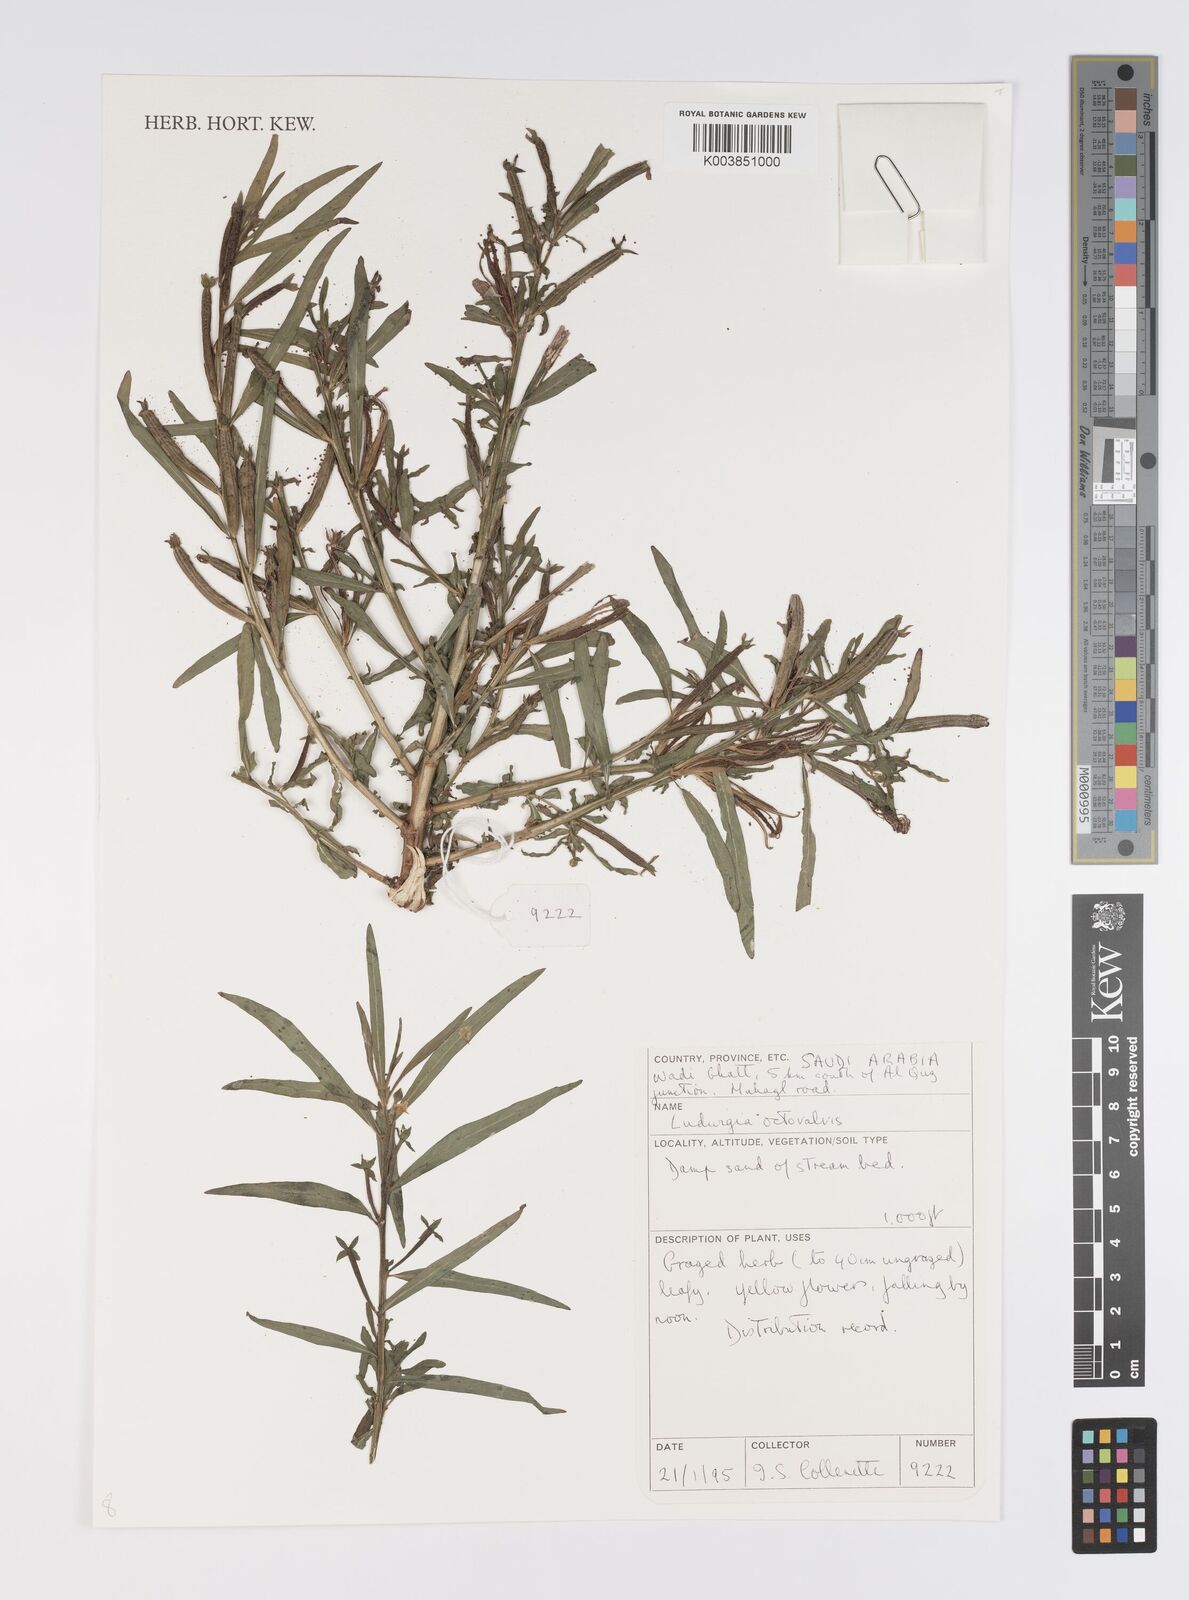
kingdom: Plantae
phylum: Tracheophyta
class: Magnoliopsida
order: Myrtales
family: Onagraceae
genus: Ludwigia
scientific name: Ludwigia octovalvis
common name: Water-primrose
